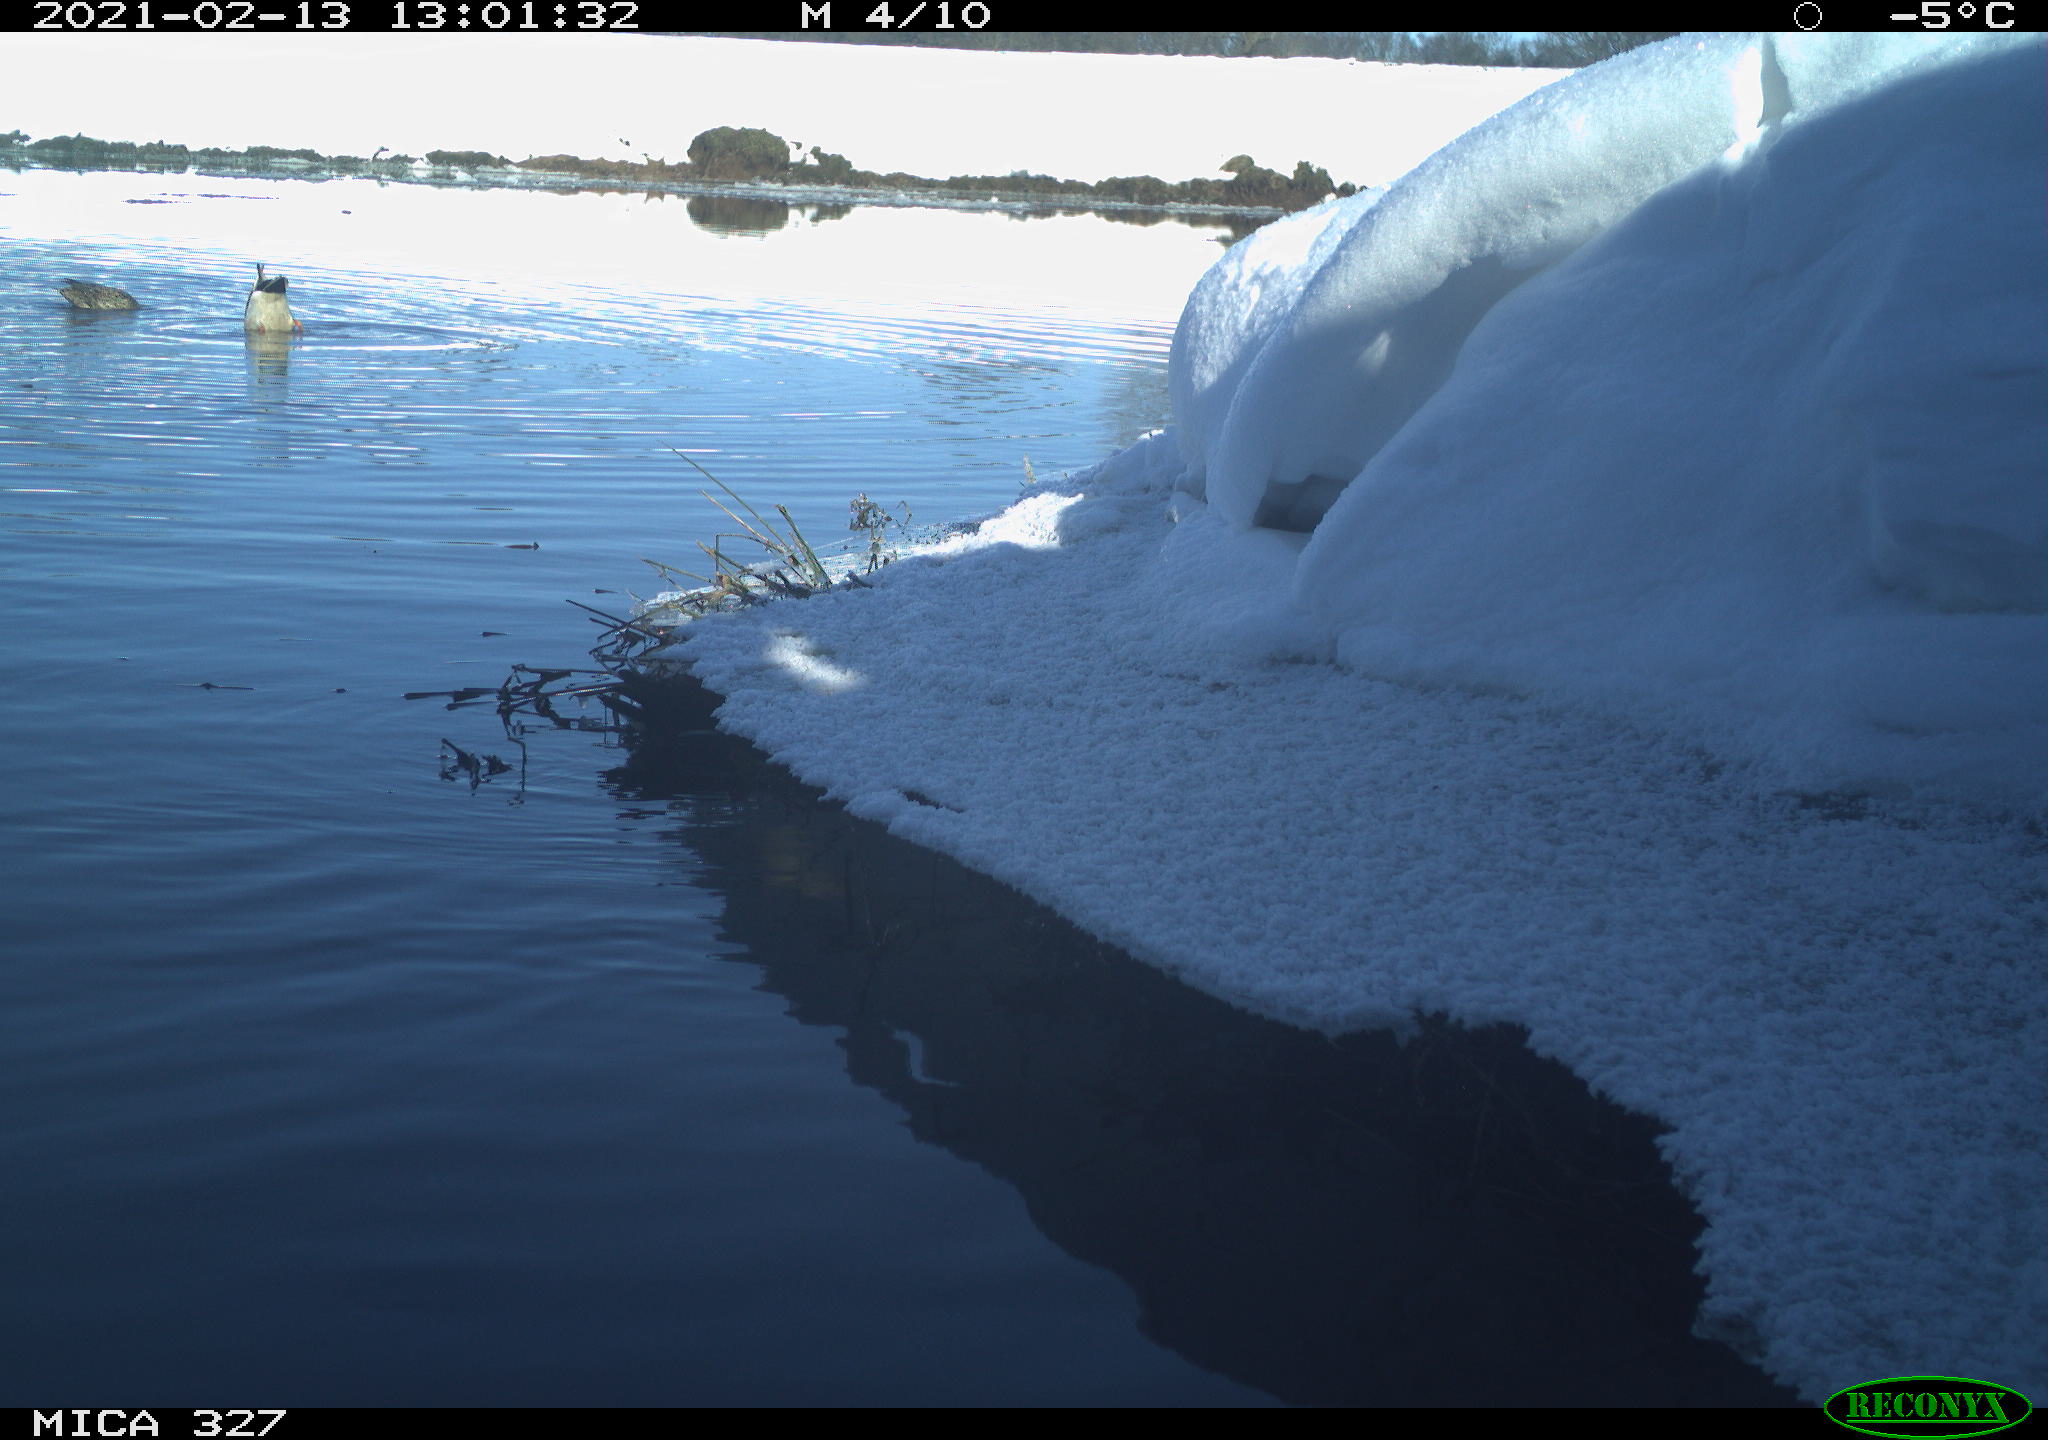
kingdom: Animalia
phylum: Chordata
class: Aves
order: Anseriformes
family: Anatidae
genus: Anas
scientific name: Anas platyrhynchos
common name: Mallard
